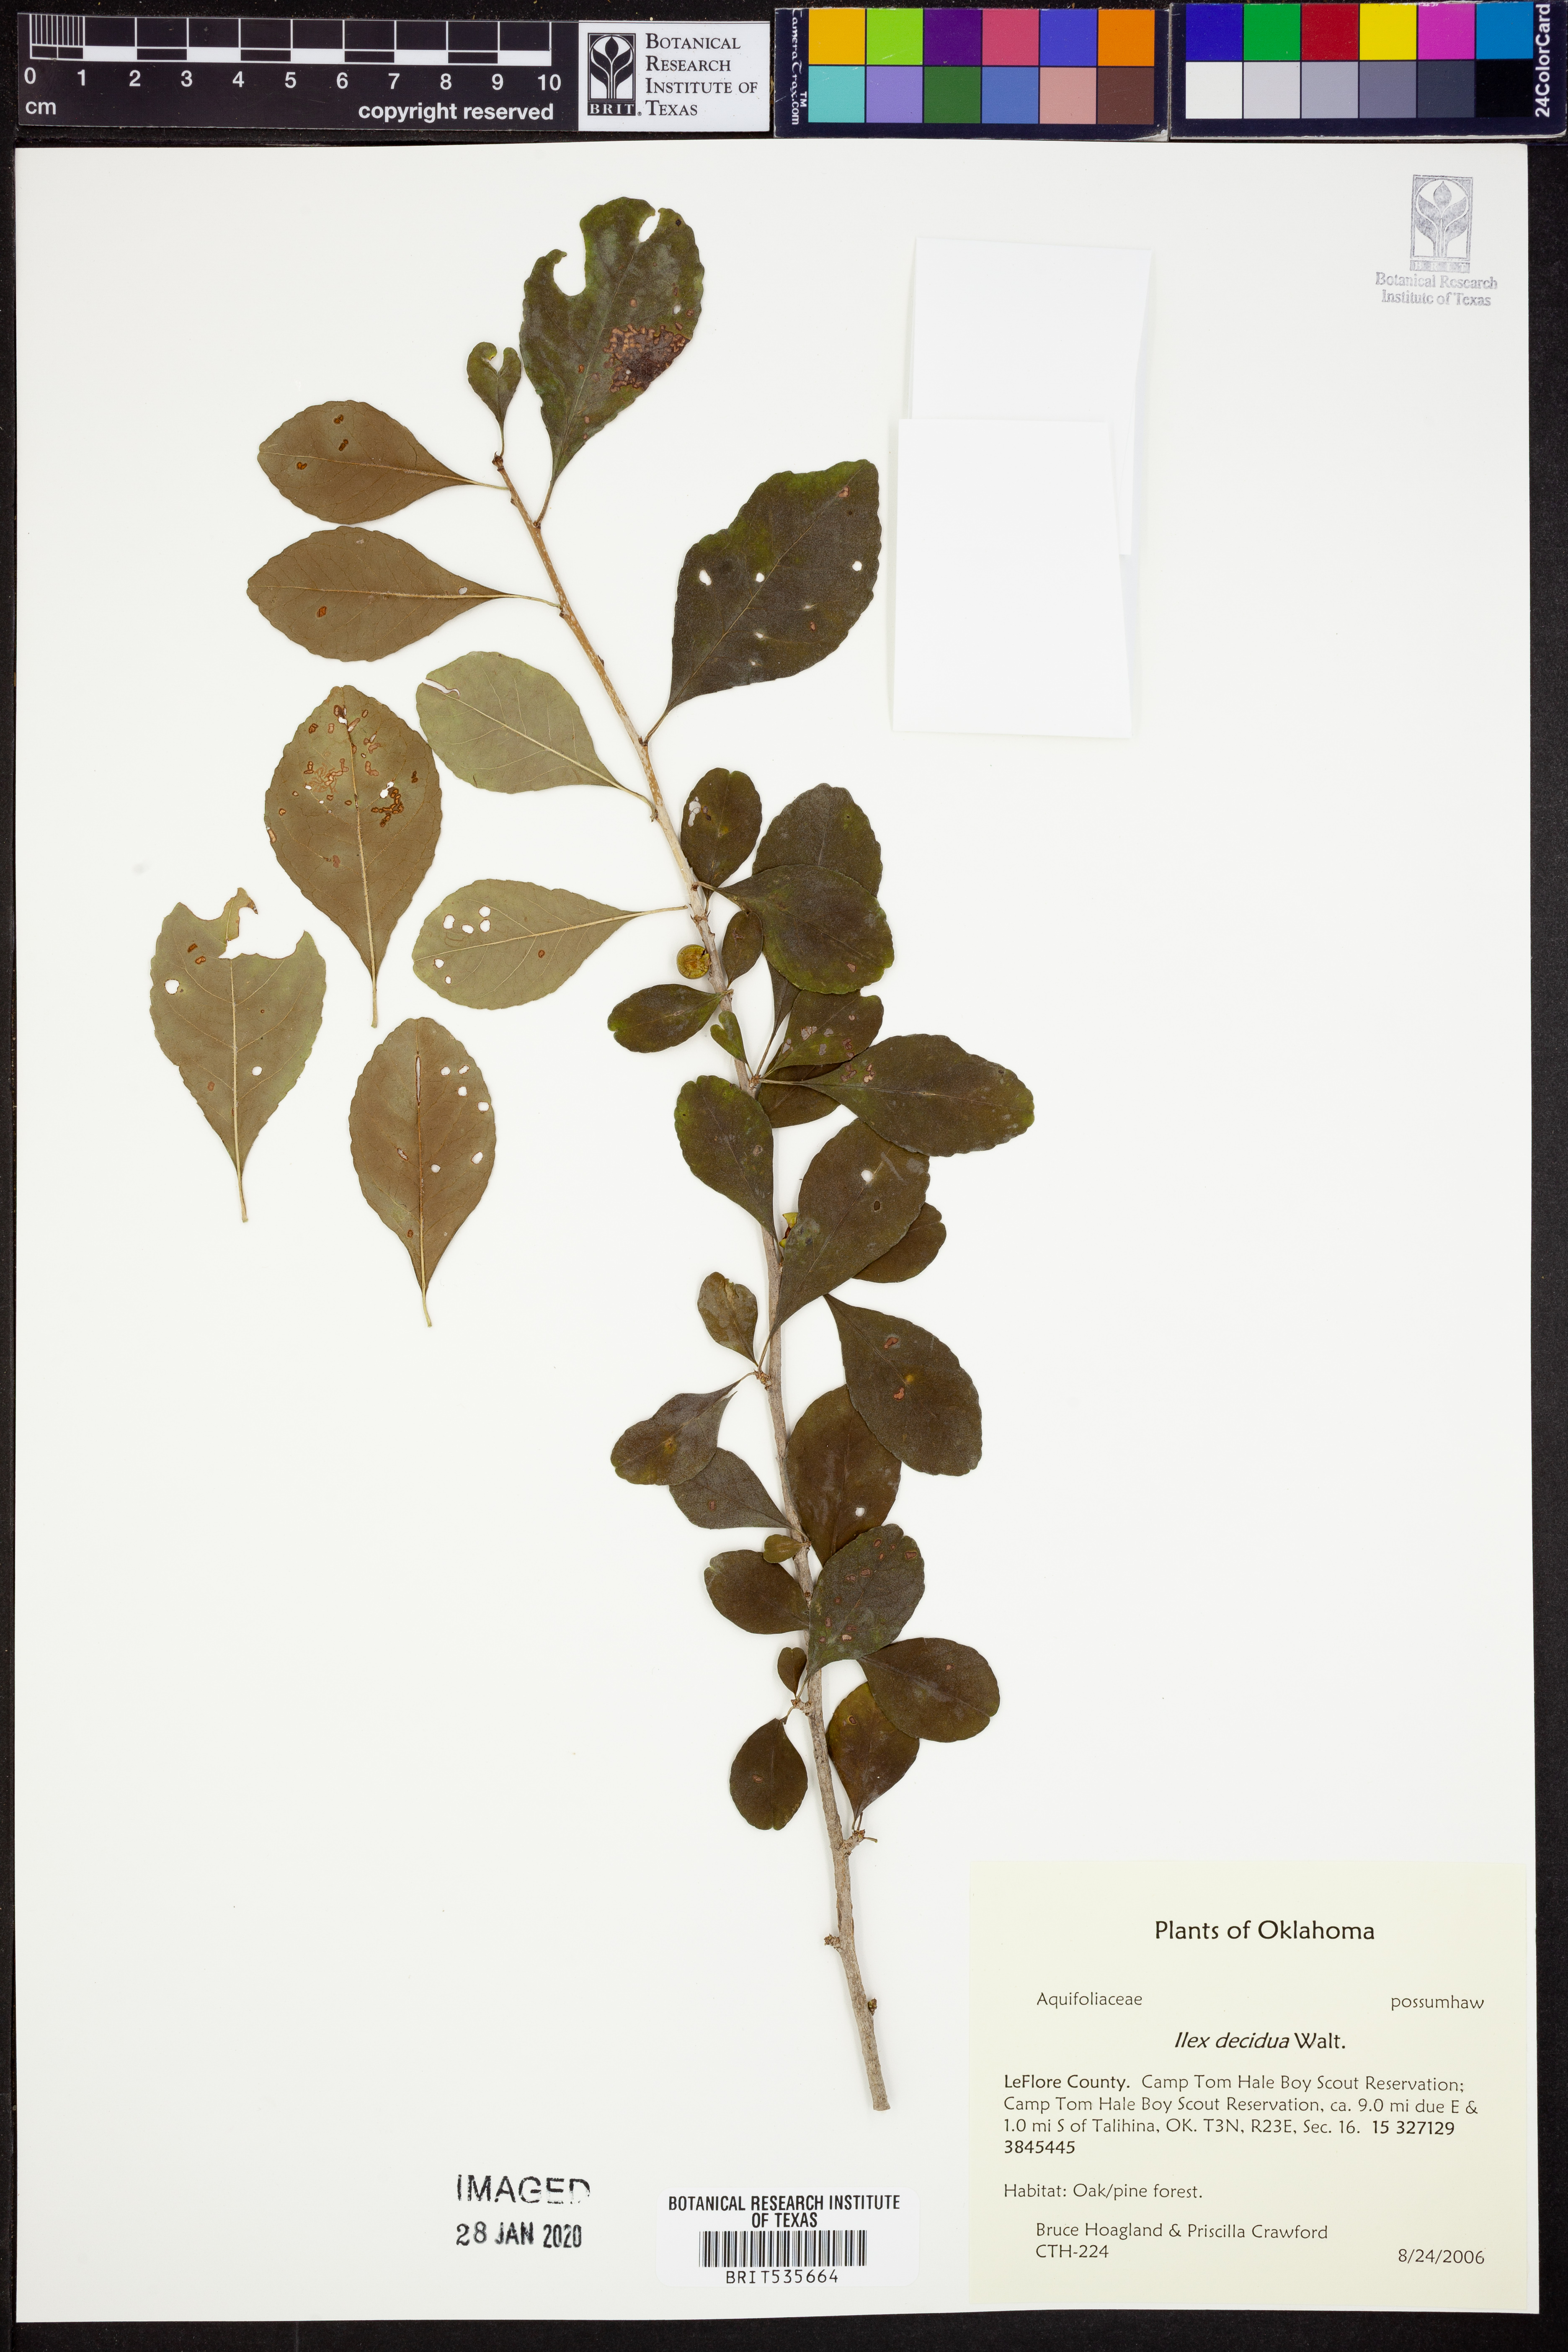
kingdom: Plantae
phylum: Tracheophyta
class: Magnoliopsida
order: Aquifoliales
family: Aquifoliaceae
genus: Ilex
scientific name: Ilex decidua
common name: Possum-haw
